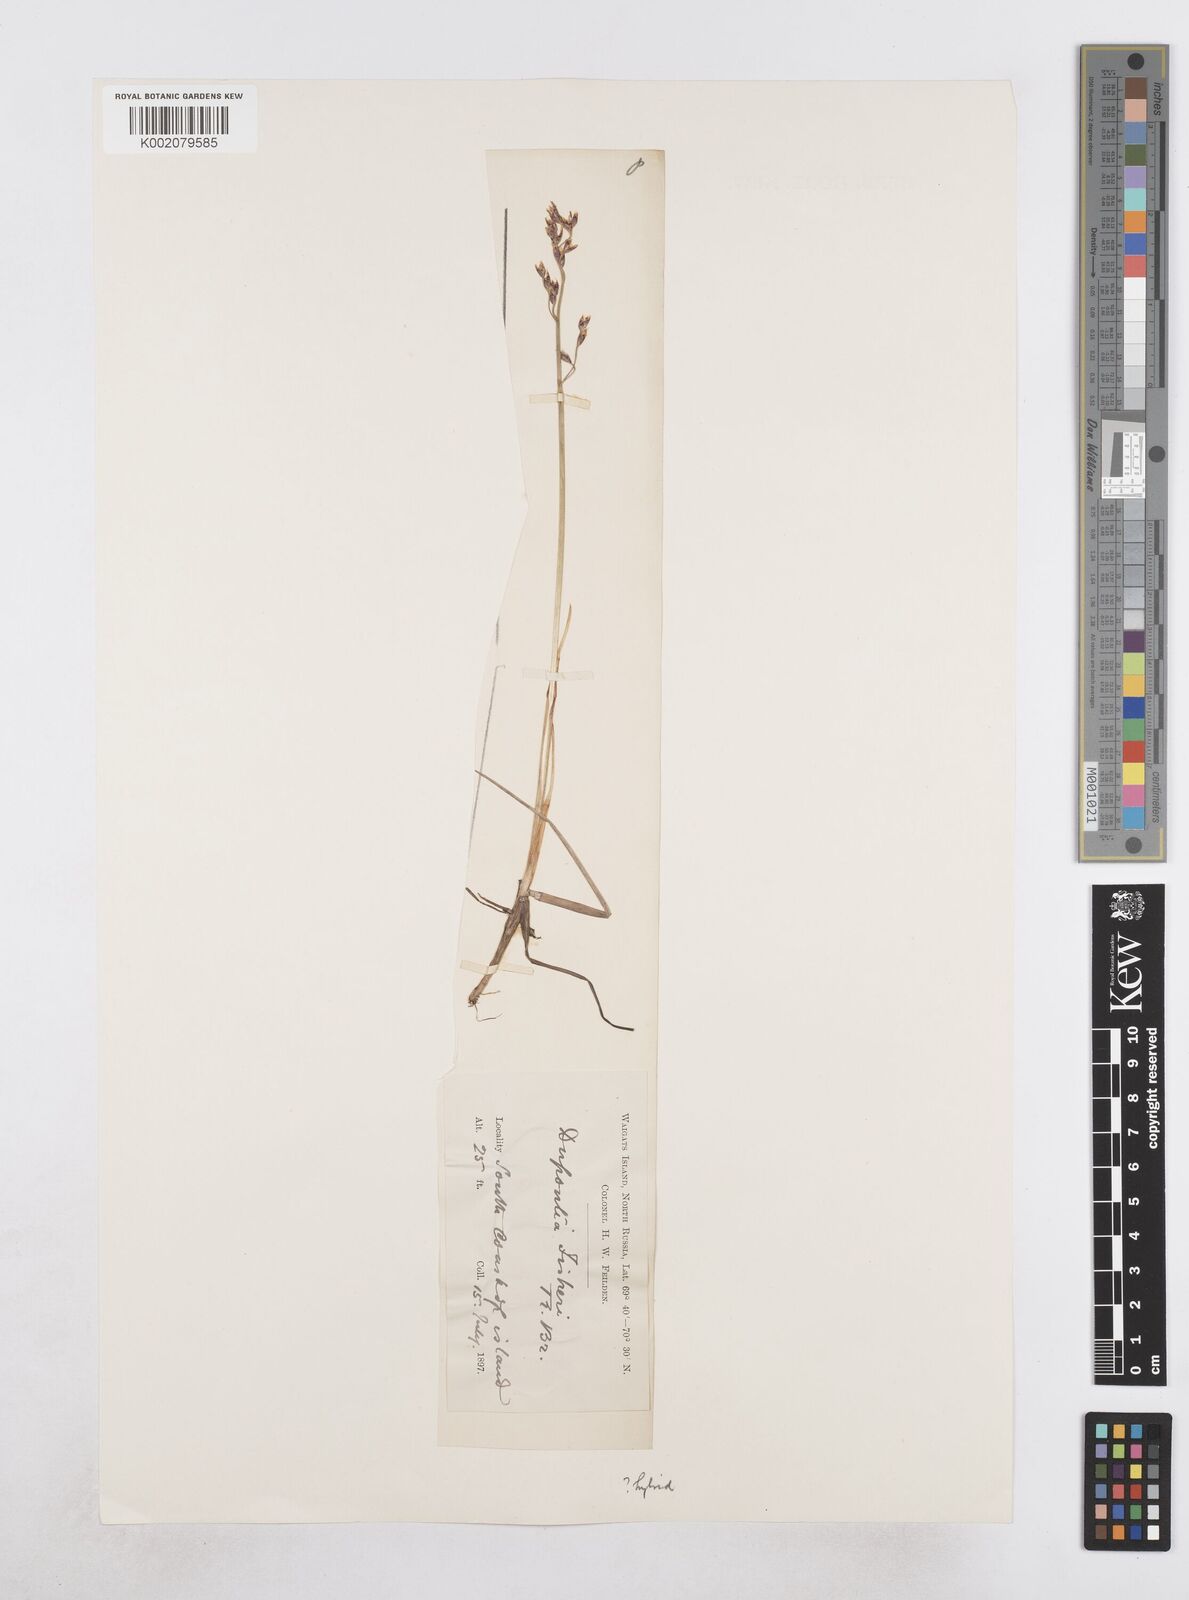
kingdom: Plantae
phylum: Tracheophyta
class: Liliopsida
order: Poales
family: Poaceae
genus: Dupontia
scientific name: Dupontia fisheri
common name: Tundra grass
